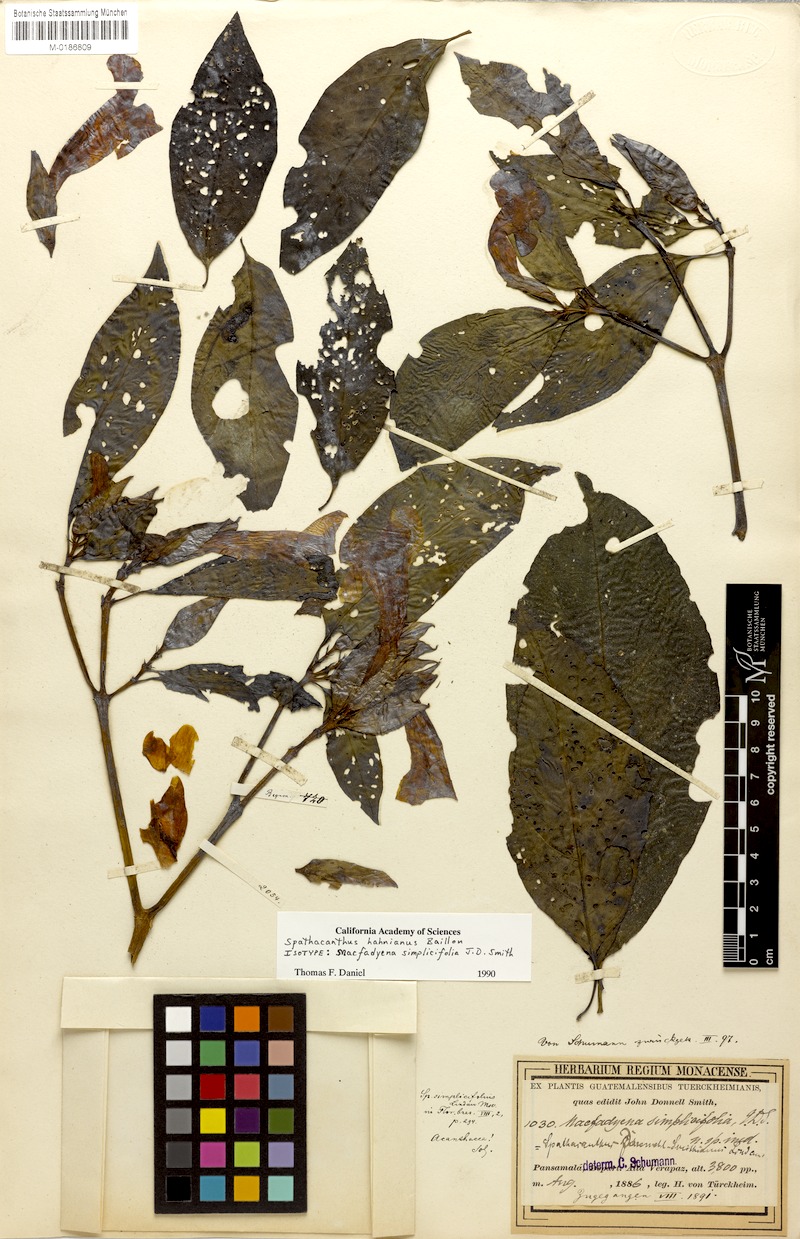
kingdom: Plantae
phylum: Tracheophyta
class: Magnoliopsida
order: Lamiales
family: Acanthaceae
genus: Spathacanthus
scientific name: Spathacanthus hahnianus
